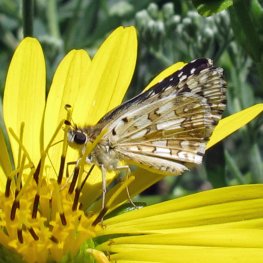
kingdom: Animalia
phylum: Arthropoda
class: Insecta
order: Lepidoptera
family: Hesperiidae
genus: Pyrgus
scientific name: Pyrgus communis
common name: Common Checkered-Skipper
